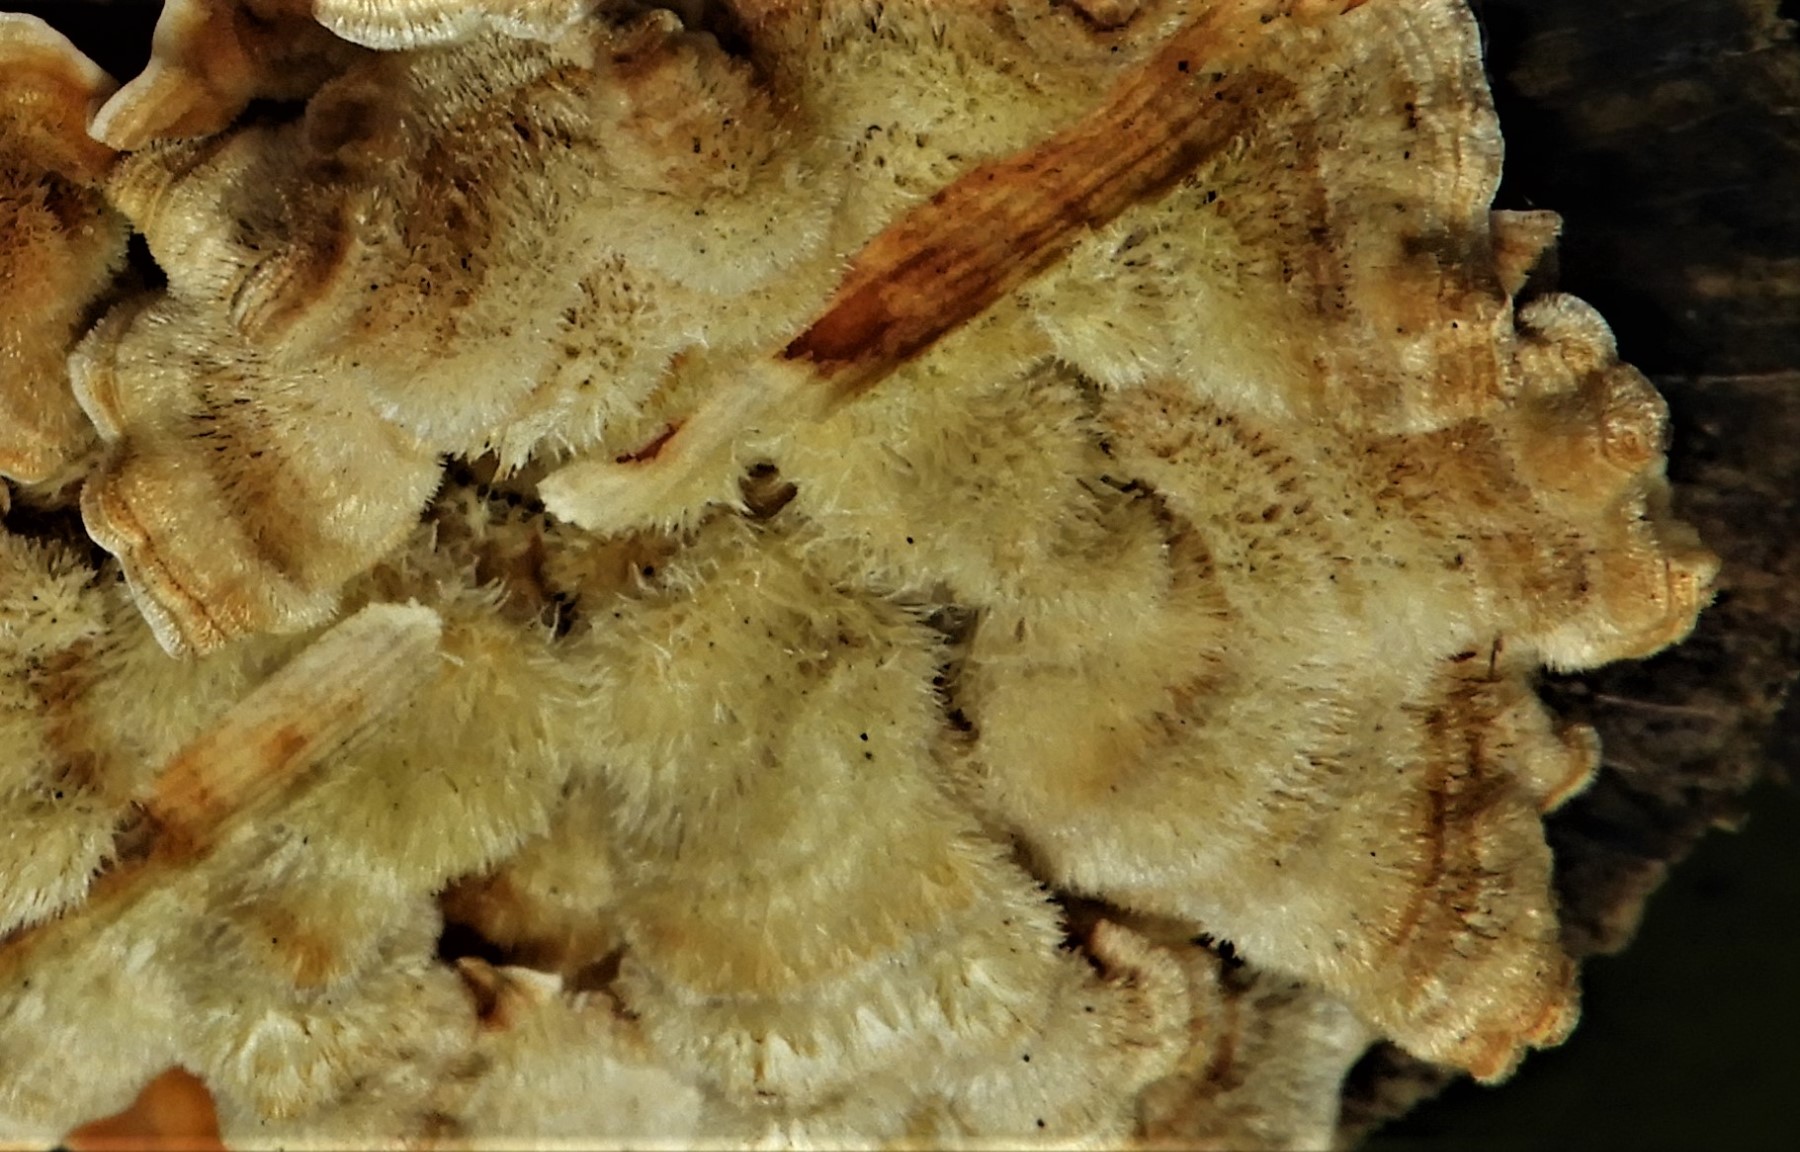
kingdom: Fungi
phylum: Basidiomycota
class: Agaricomycetes
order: Russulales
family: Stereaceae
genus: Stereum
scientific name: Stereum hirsutum
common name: håret lædersvamp
